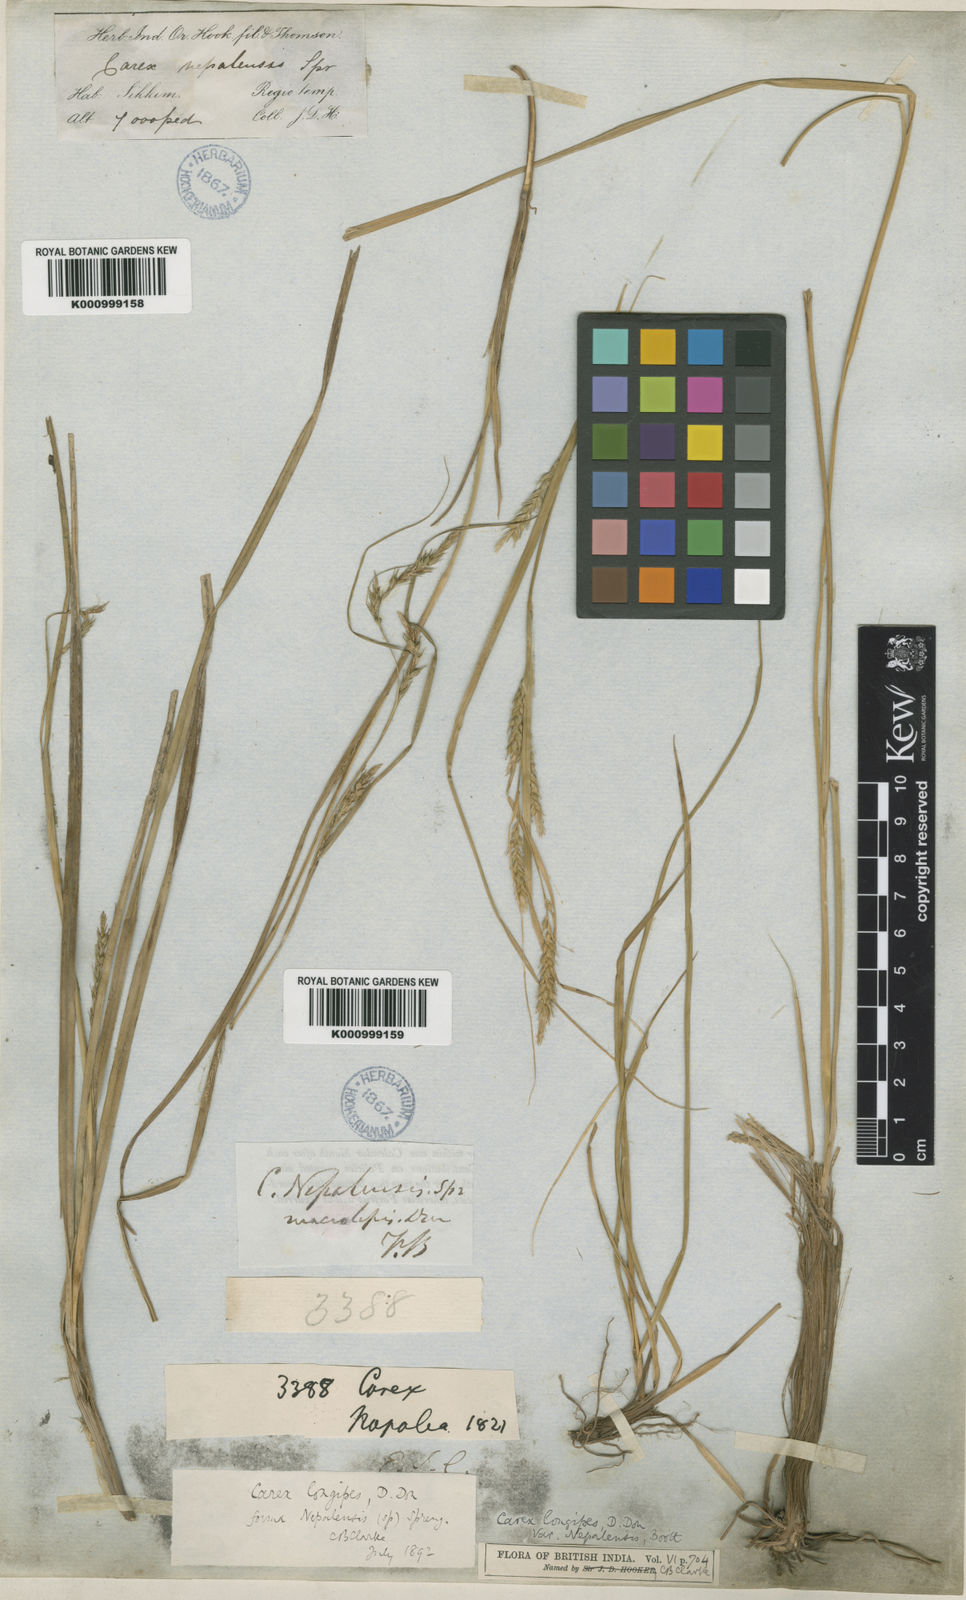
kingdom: Plantae
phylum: Tracheophyta
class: Liliopsida
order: Poales
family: Cyperaceae
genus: Carex
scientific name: Carex longipes
